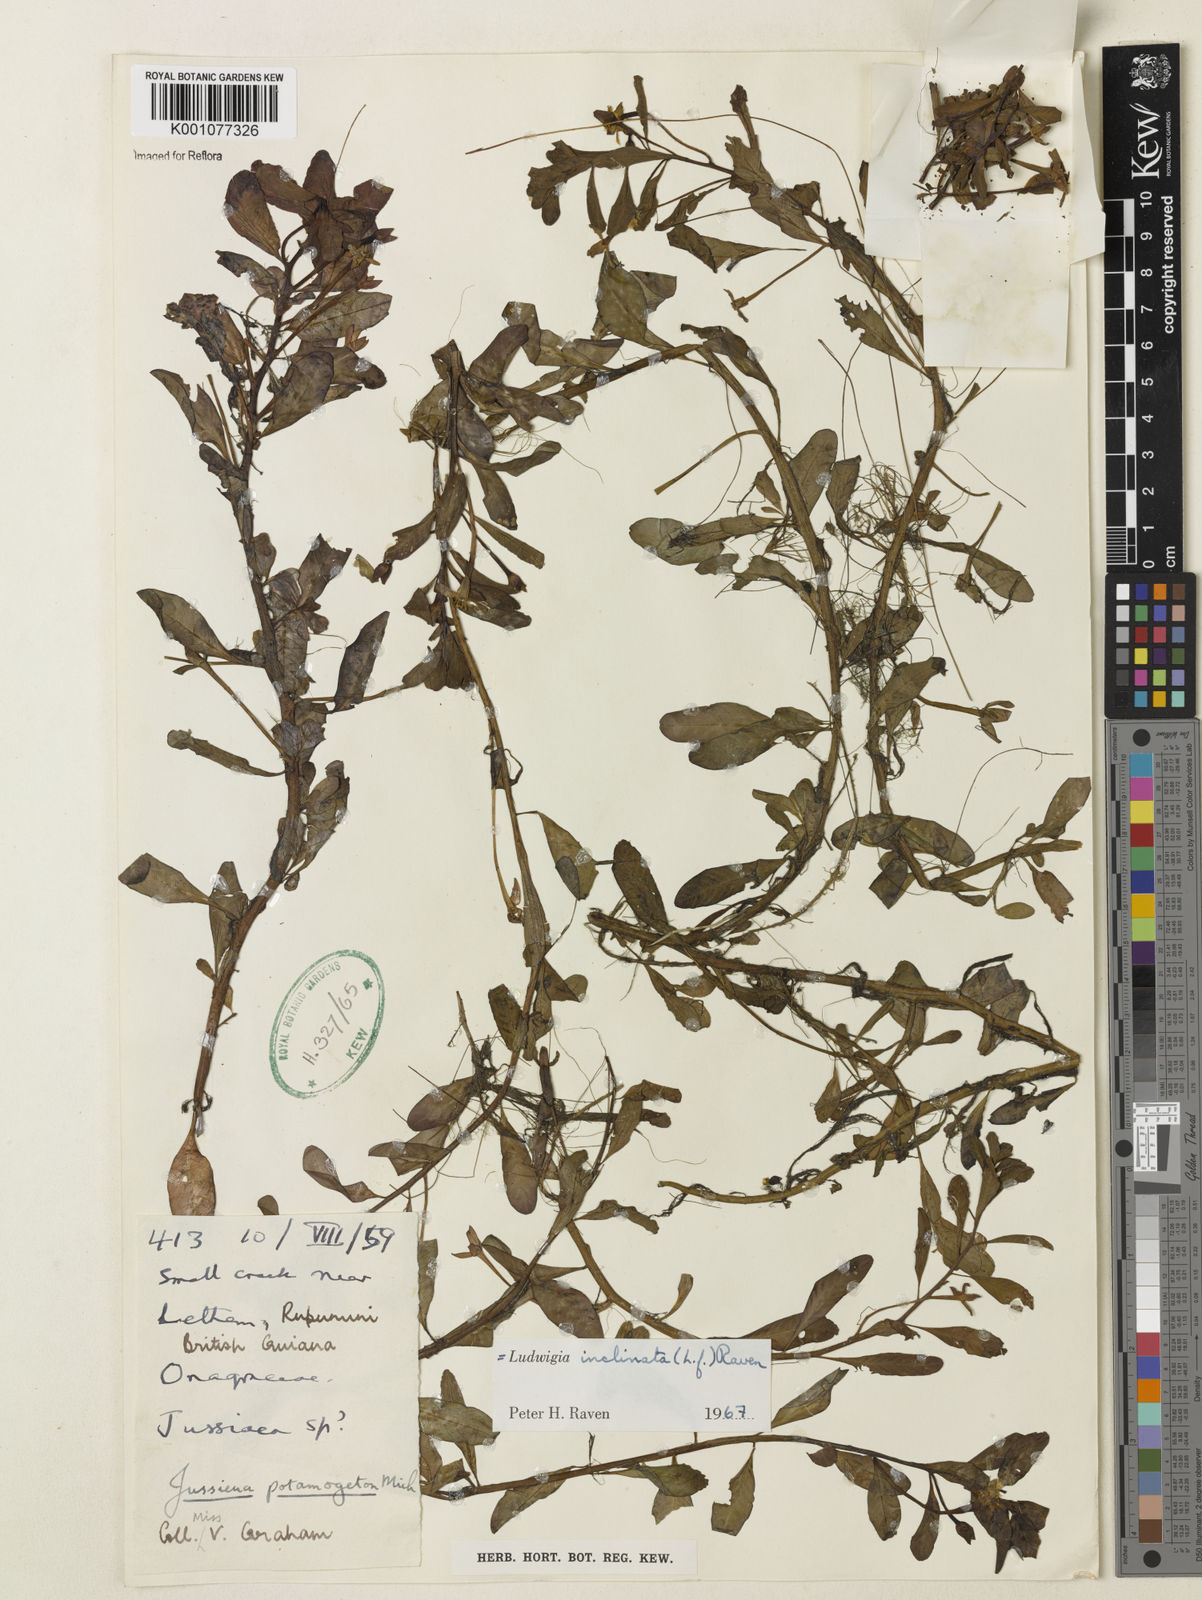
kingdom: Plantae
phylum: Tracheophyta
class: Magnoliopsida
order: Myrtales
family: Onagraceae
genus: Ludwigia
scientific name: Ludwigia potamogeton
